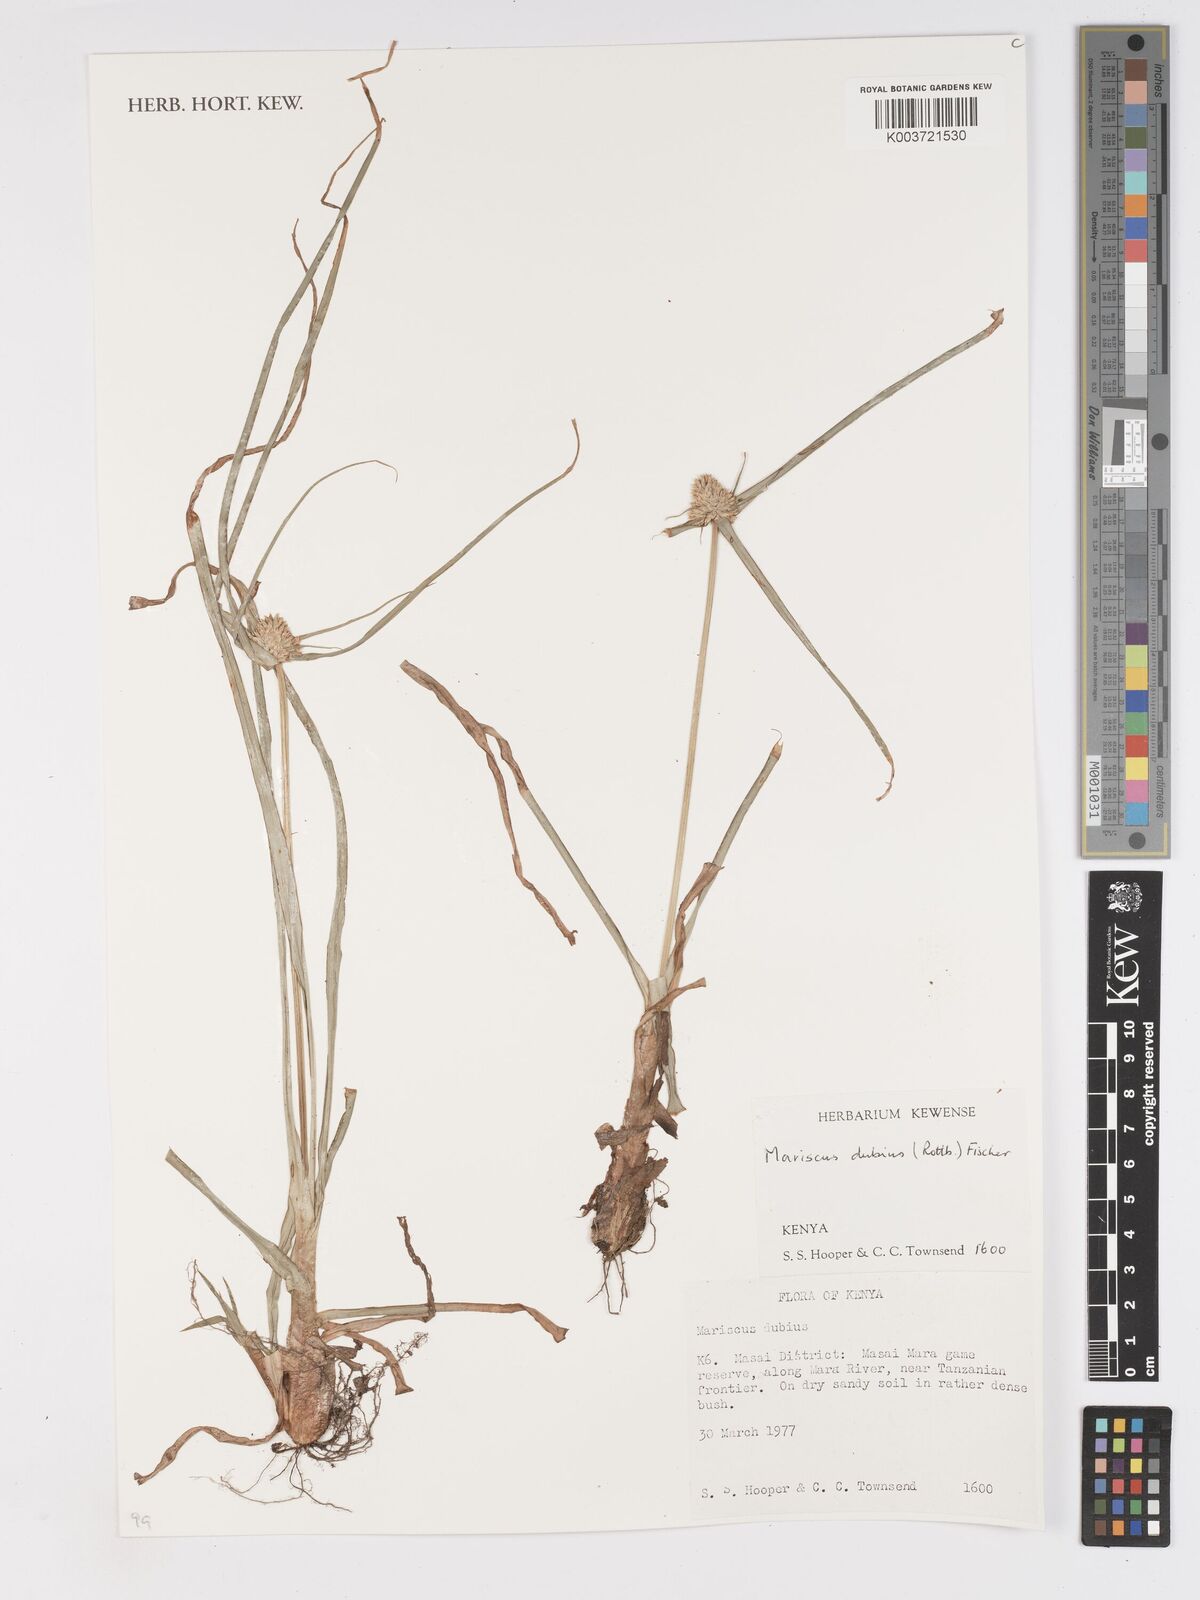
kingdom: Plantae
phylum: Tracheophyta
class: Liliopsida
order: Poales
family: Cyperaceae
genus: Cyperus
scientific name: Cyperus dubius
